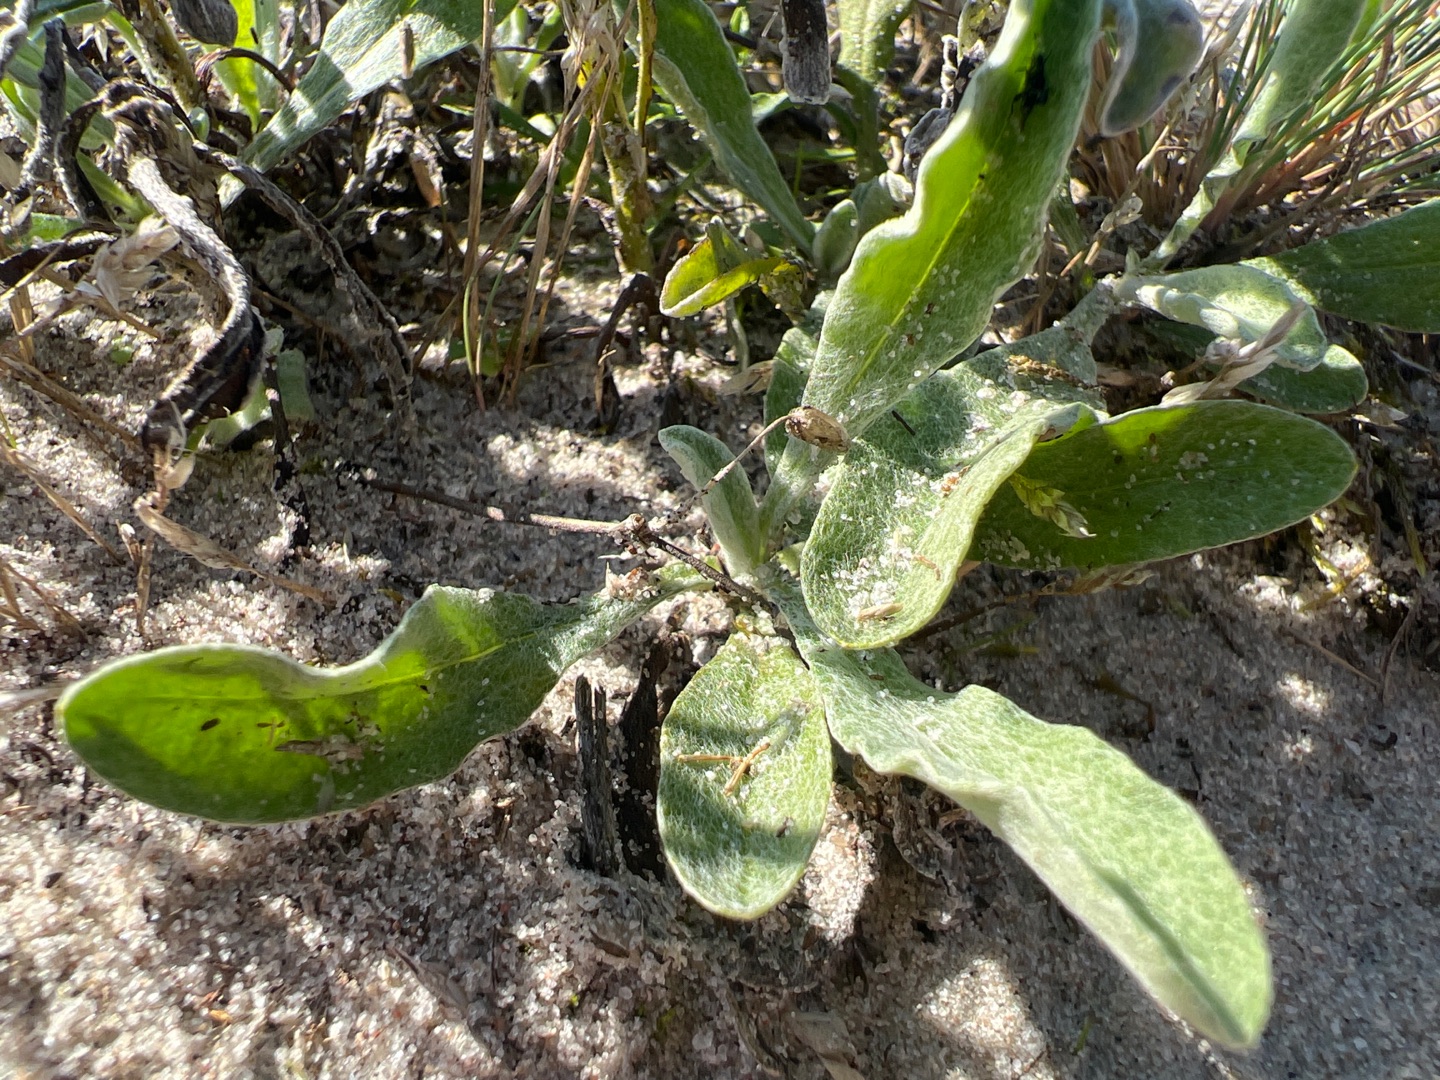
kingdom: Plantae
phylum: Tracheophyta
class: Magnoliopsida
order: Asterales
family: Asteraceae
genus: Helichrysum
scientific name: Helichrysum arenarium
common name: Gul evighedsblomst
